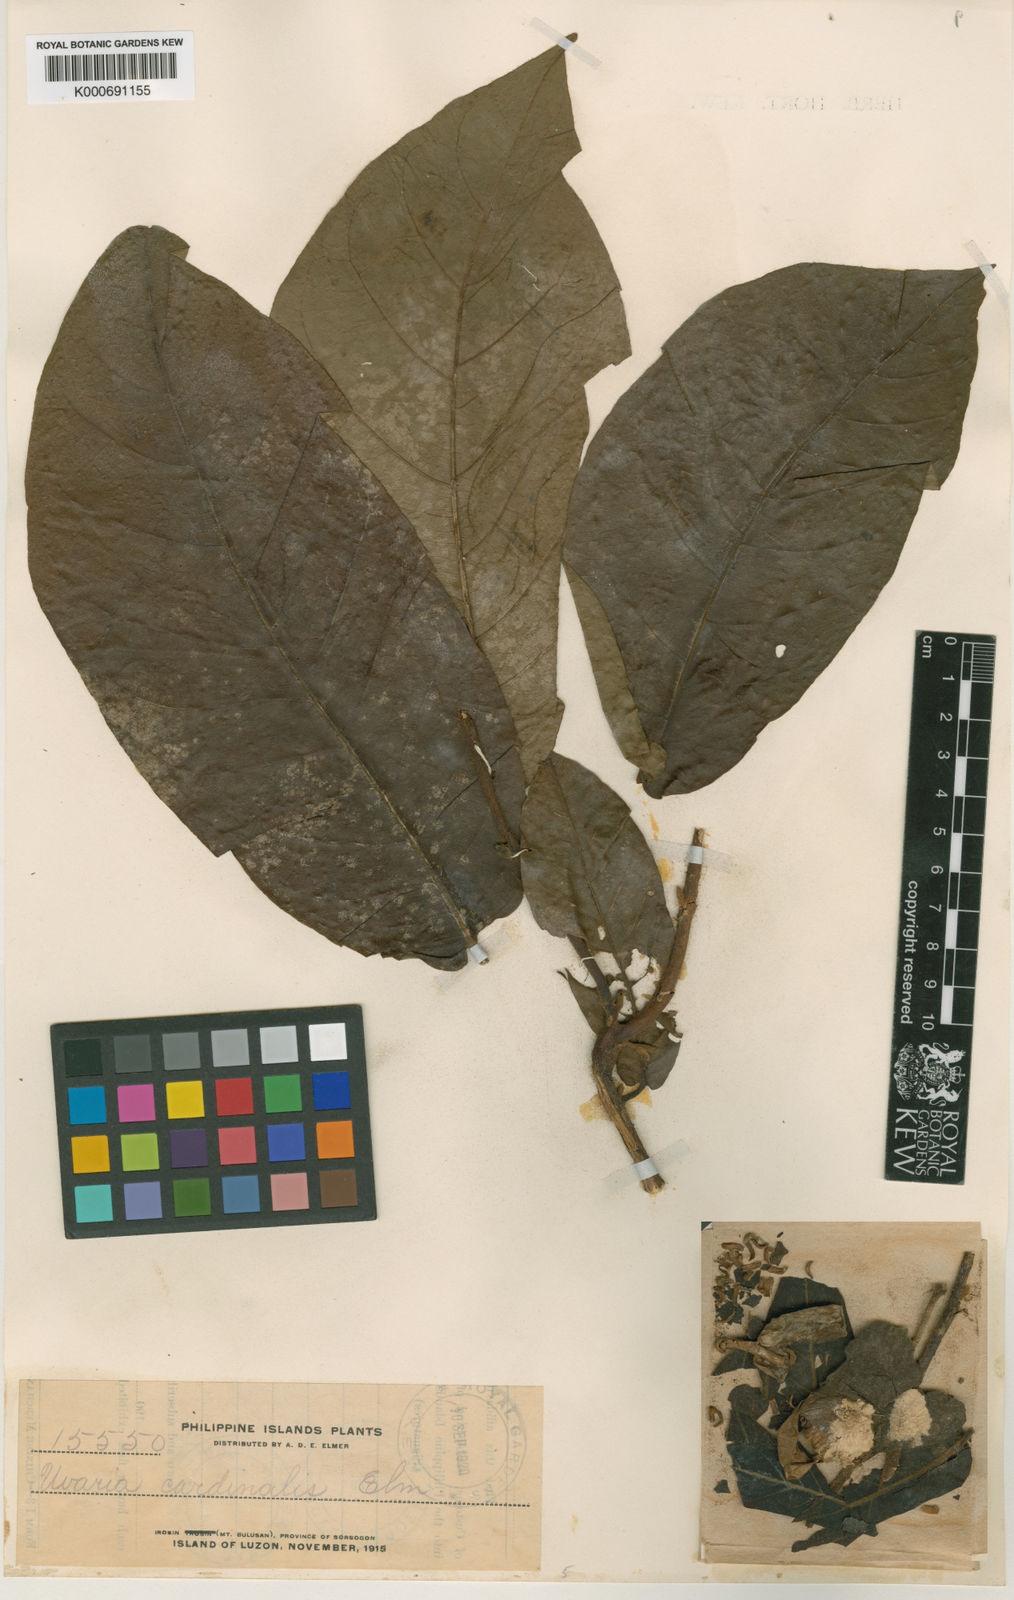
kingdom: Plantae
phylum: Tracheophyta
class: Magnoliopsida
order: Magnoliales
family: Annonaceae
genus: Uvaria
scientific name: Uvaria grandiflora
